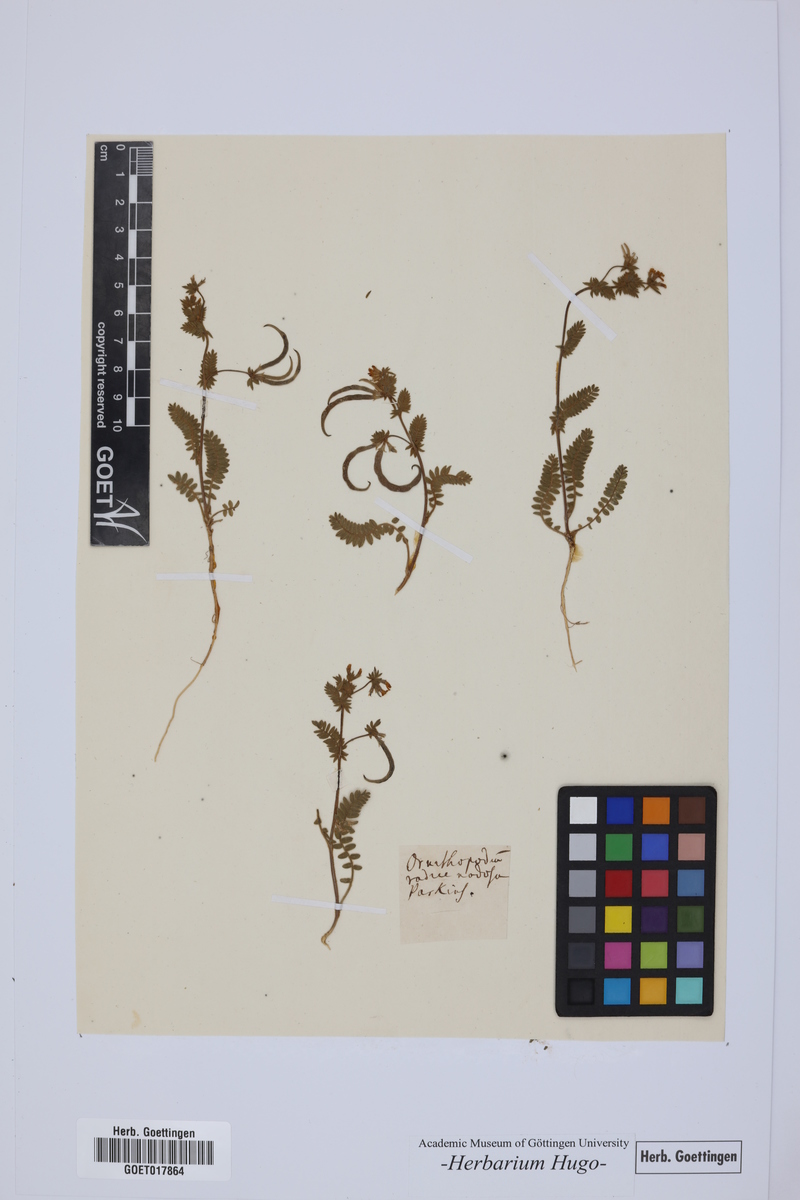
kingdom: Plantae
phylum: Tracheophyta
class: Magnoliopsida
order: Fabales
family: Fabaceae
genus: Ornithopus
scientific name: Ornithopus perpusillus
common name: Bird's-foot
